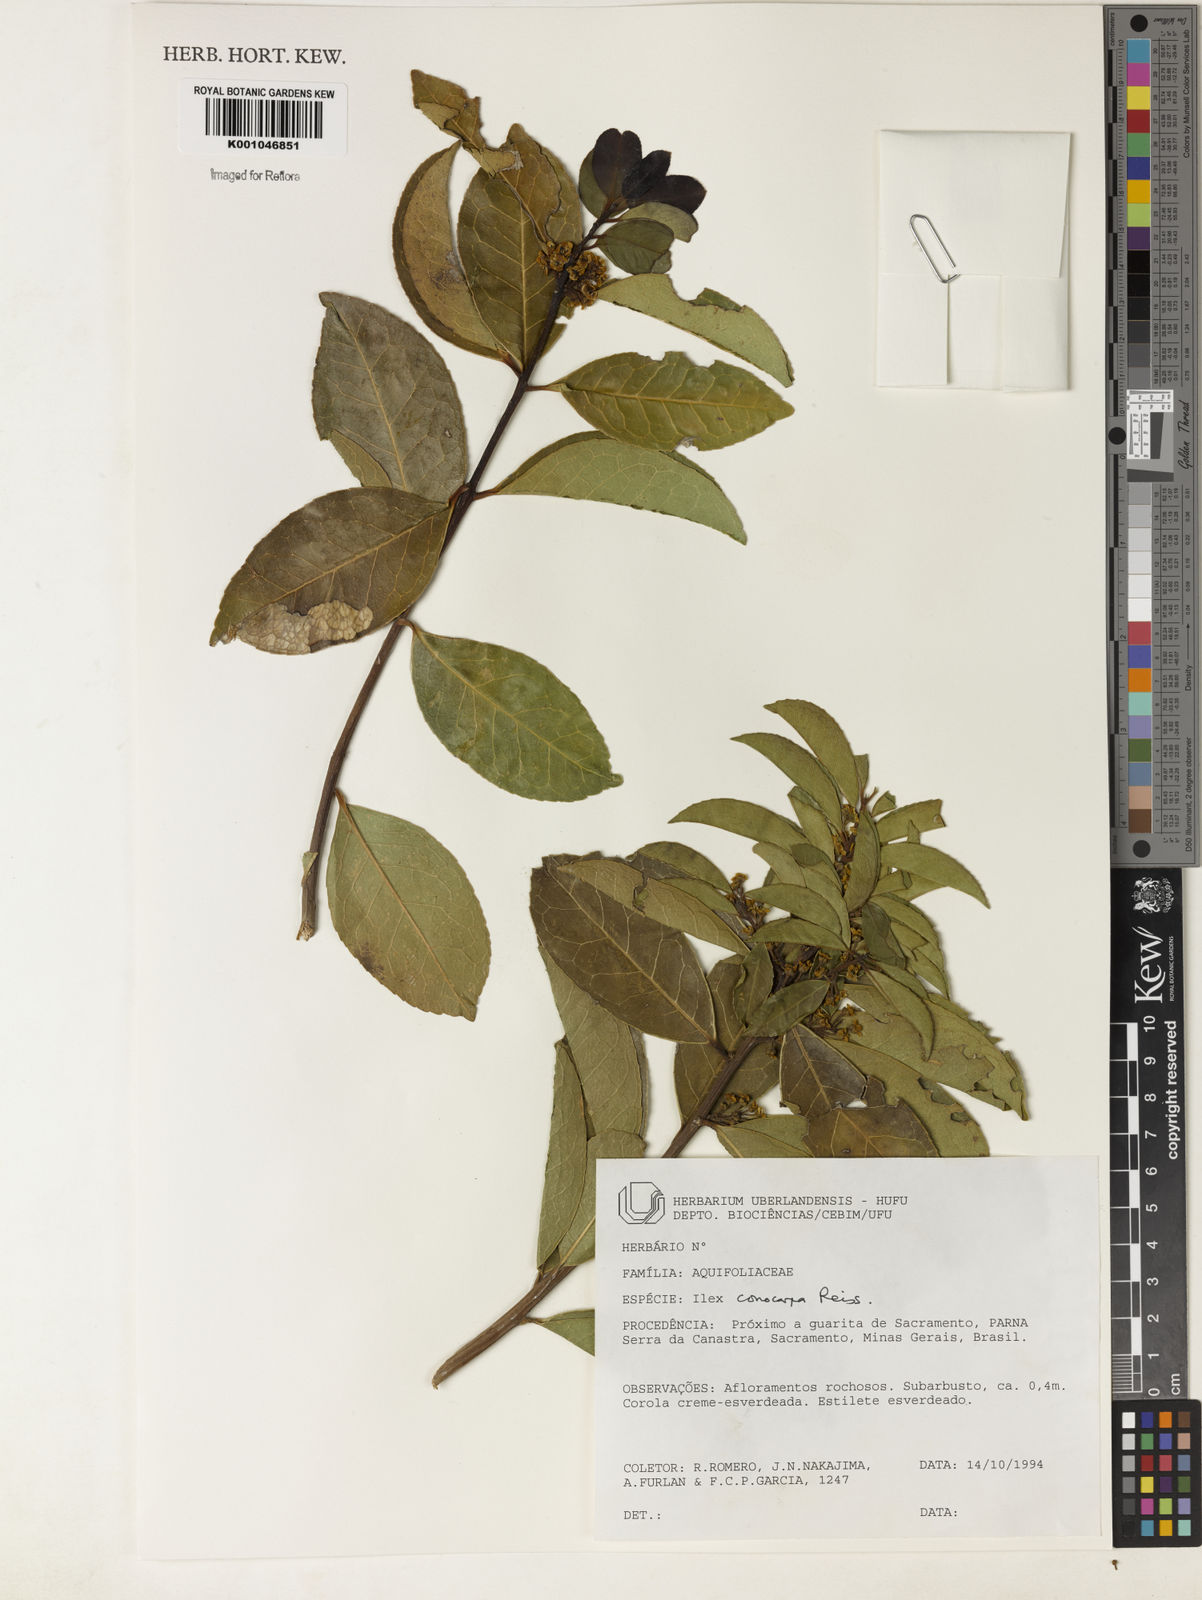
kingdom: Plantae
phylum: Tracheophyta
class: Magnoliopsida
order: Aquifoliales
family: Aquifoliaceae
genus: Ilex
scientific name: Ilex conocarpa
